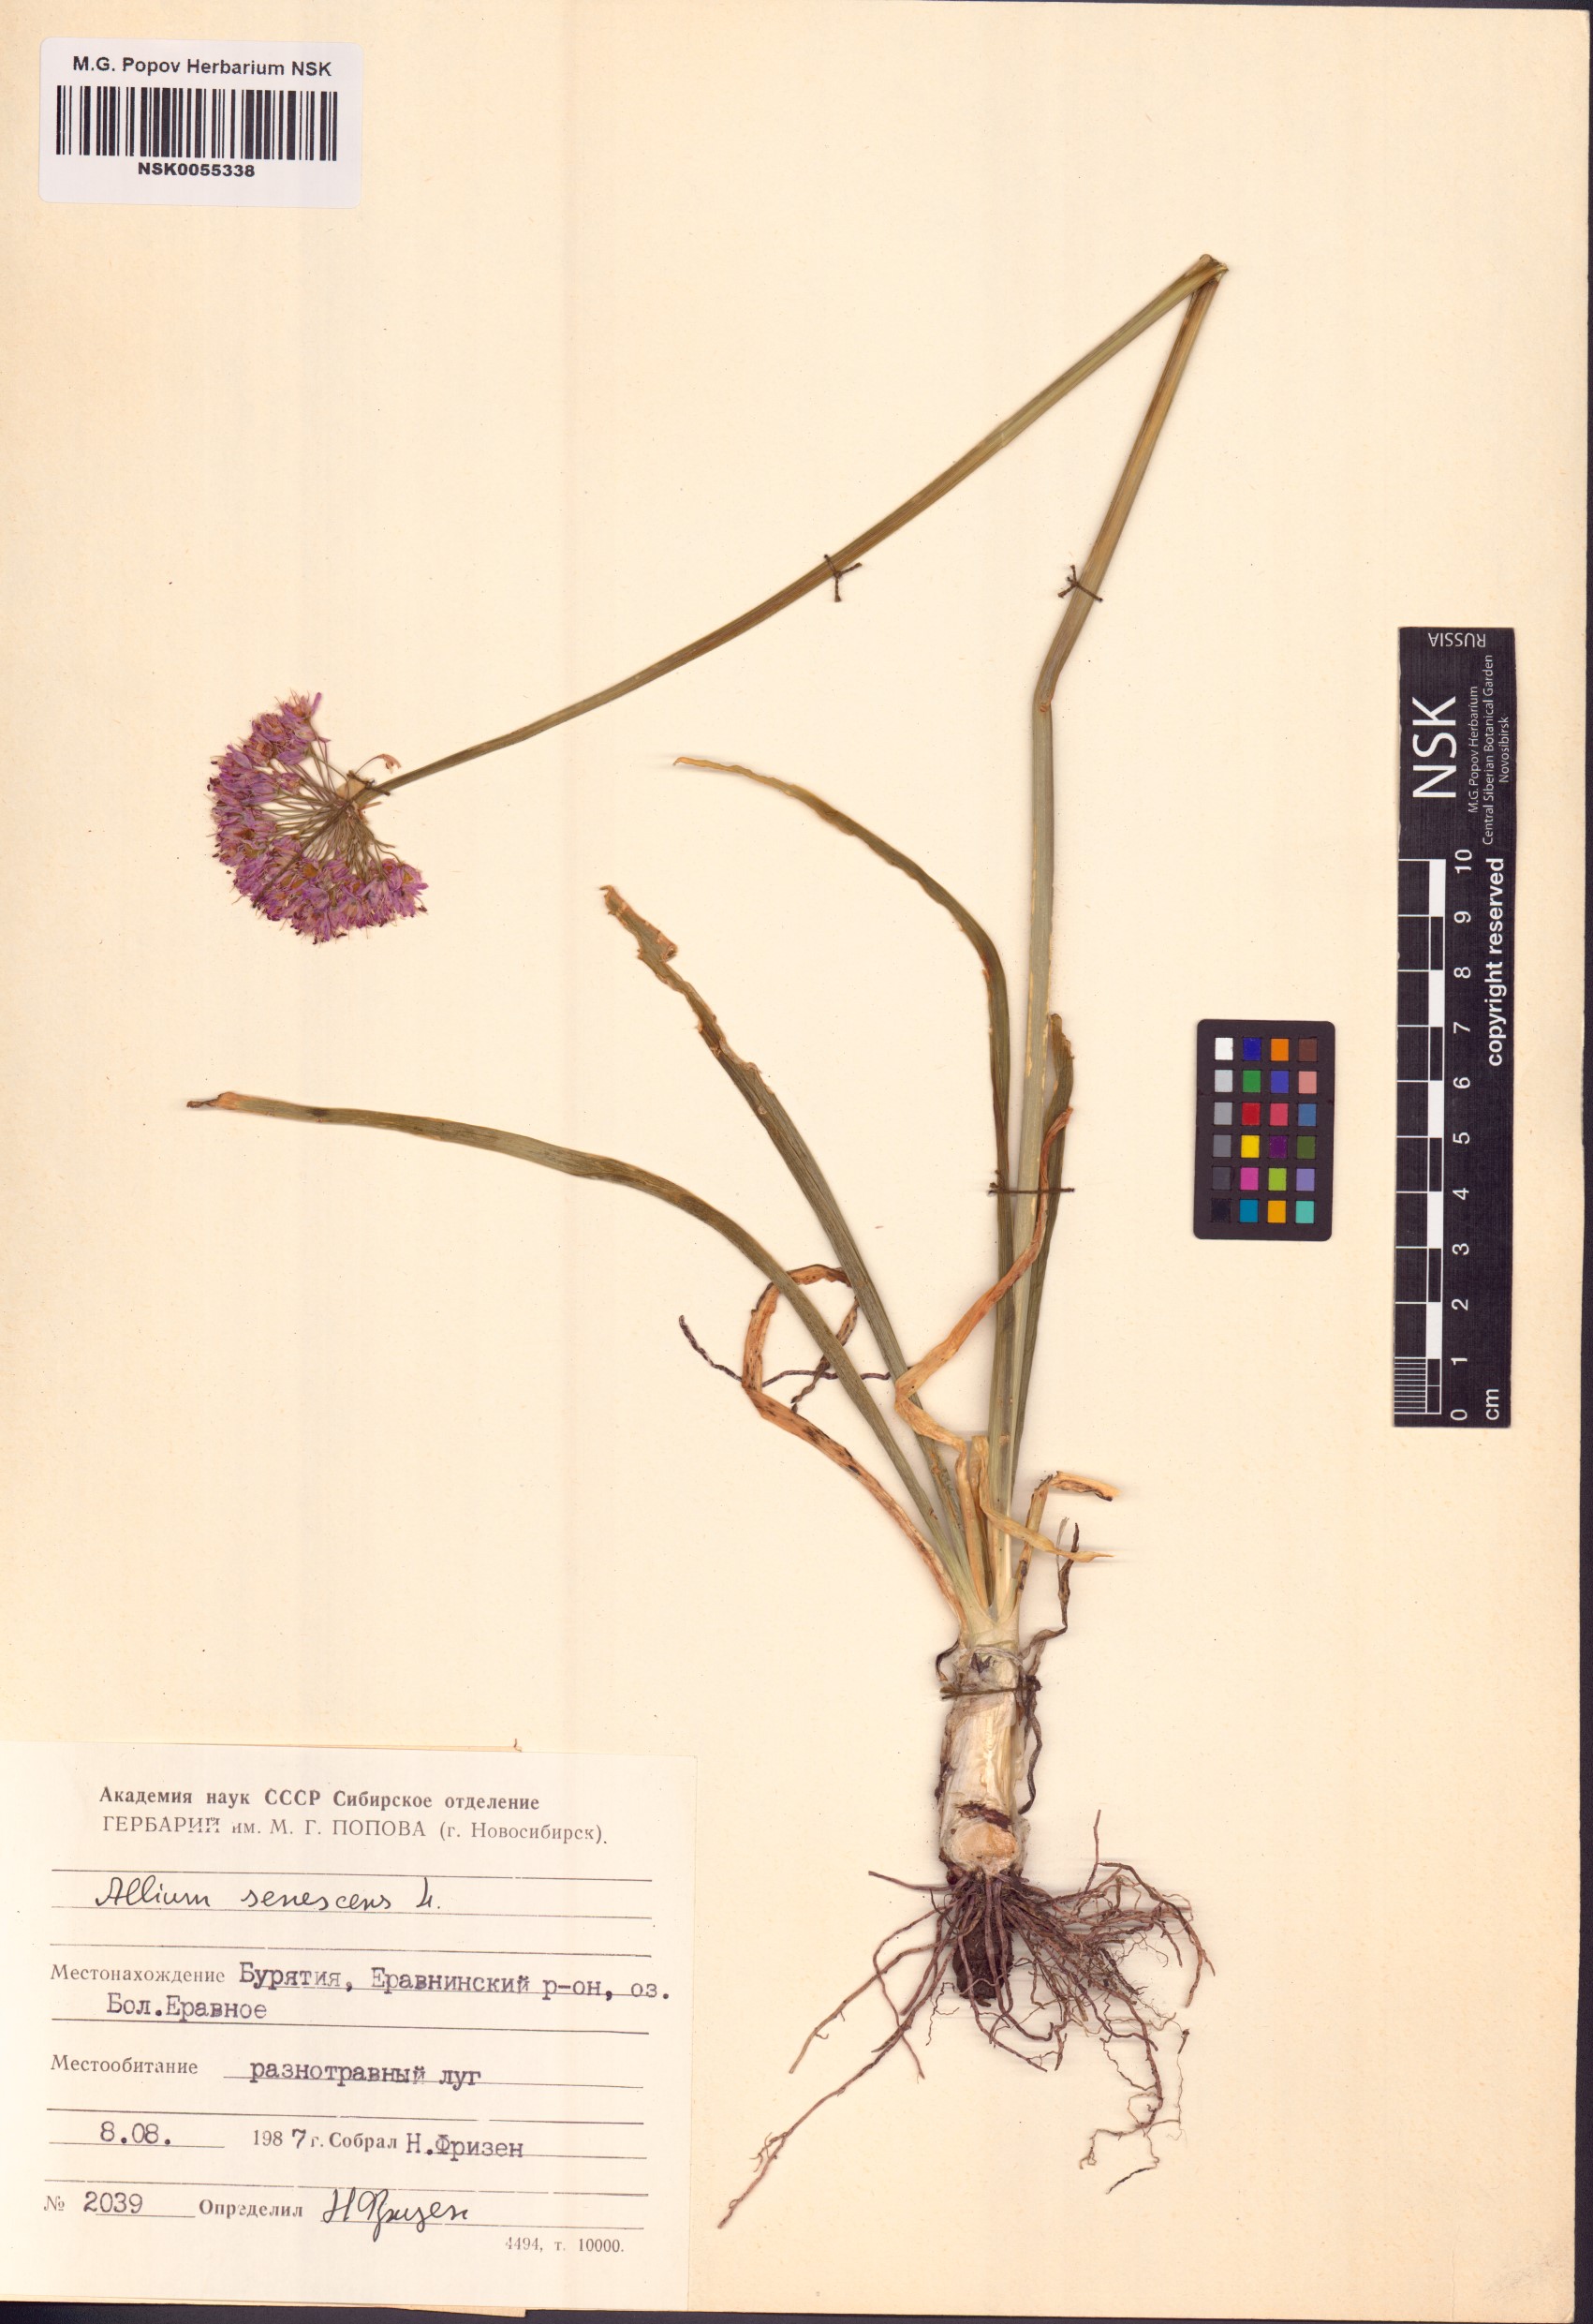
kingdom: Plantae
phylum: Tracheophyta
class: Liliopsida
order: Asparagales
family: Amaryllidaceae
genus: Allium
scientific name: Allium senescens
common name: German garlic
